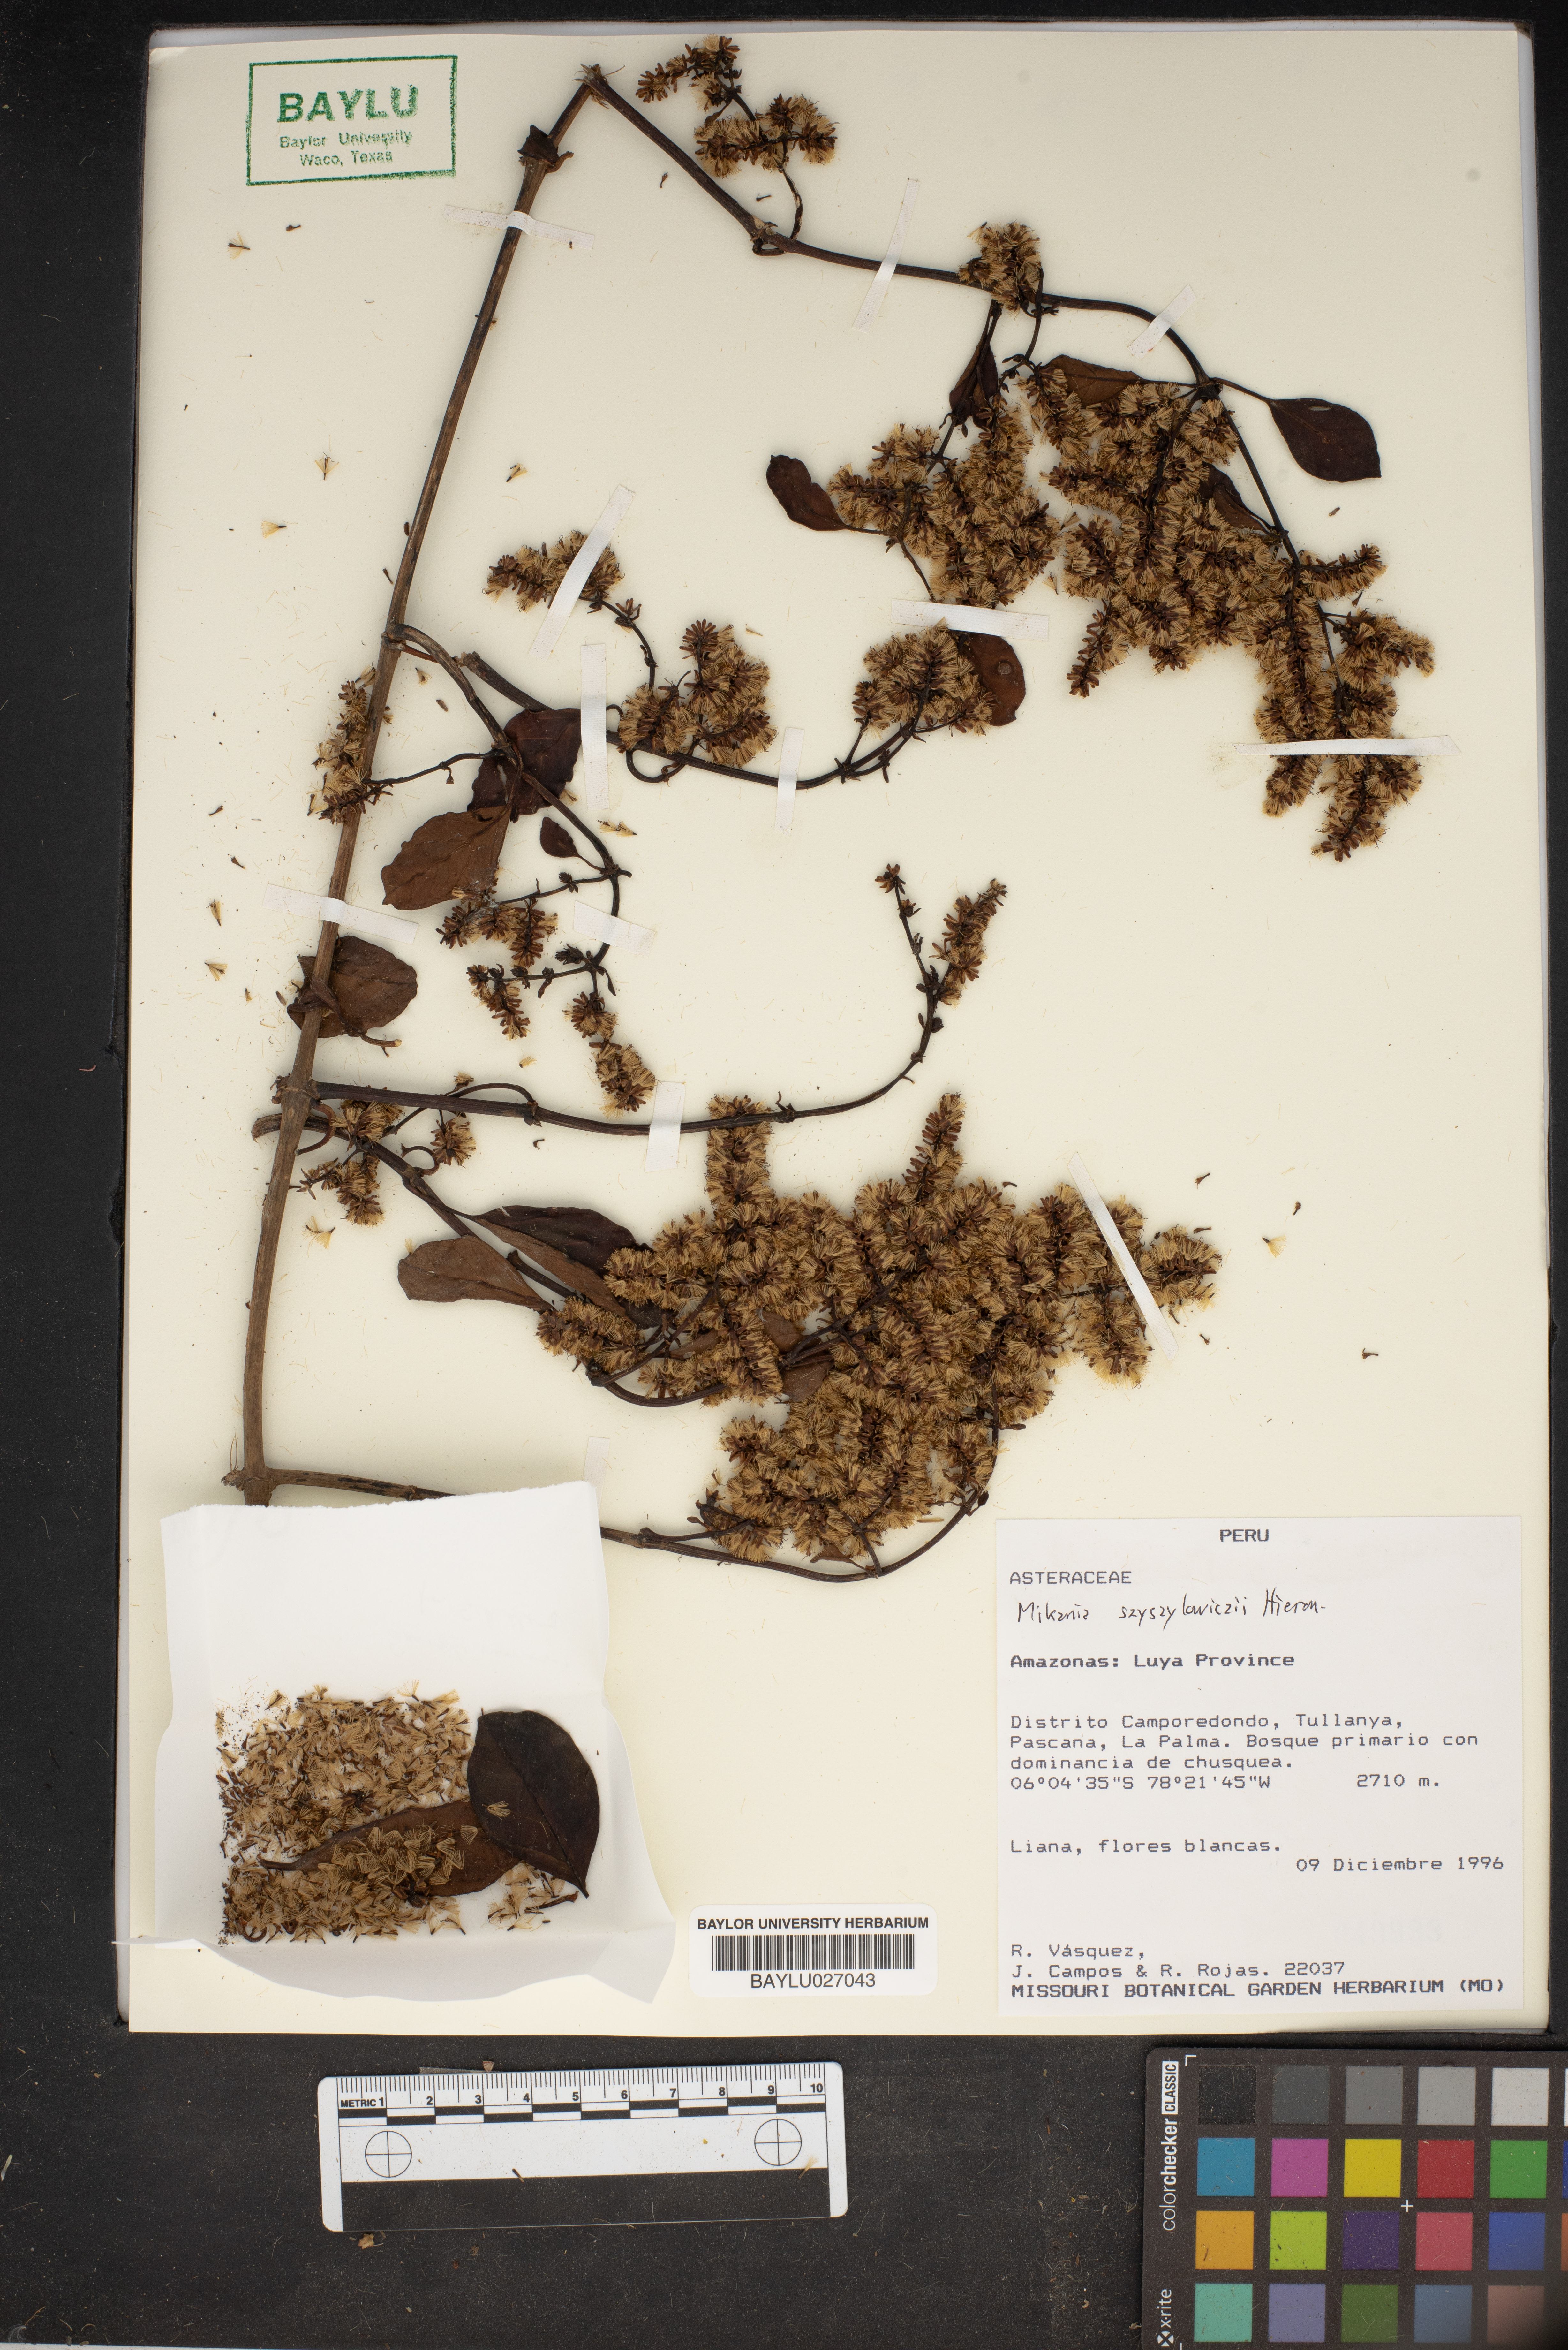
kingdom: Plantae
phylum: Tracheophyta
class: Magnoliopsida
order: Asterales
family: Asteraceae
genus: Mikania
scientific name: Mikania szyszylowiczii
